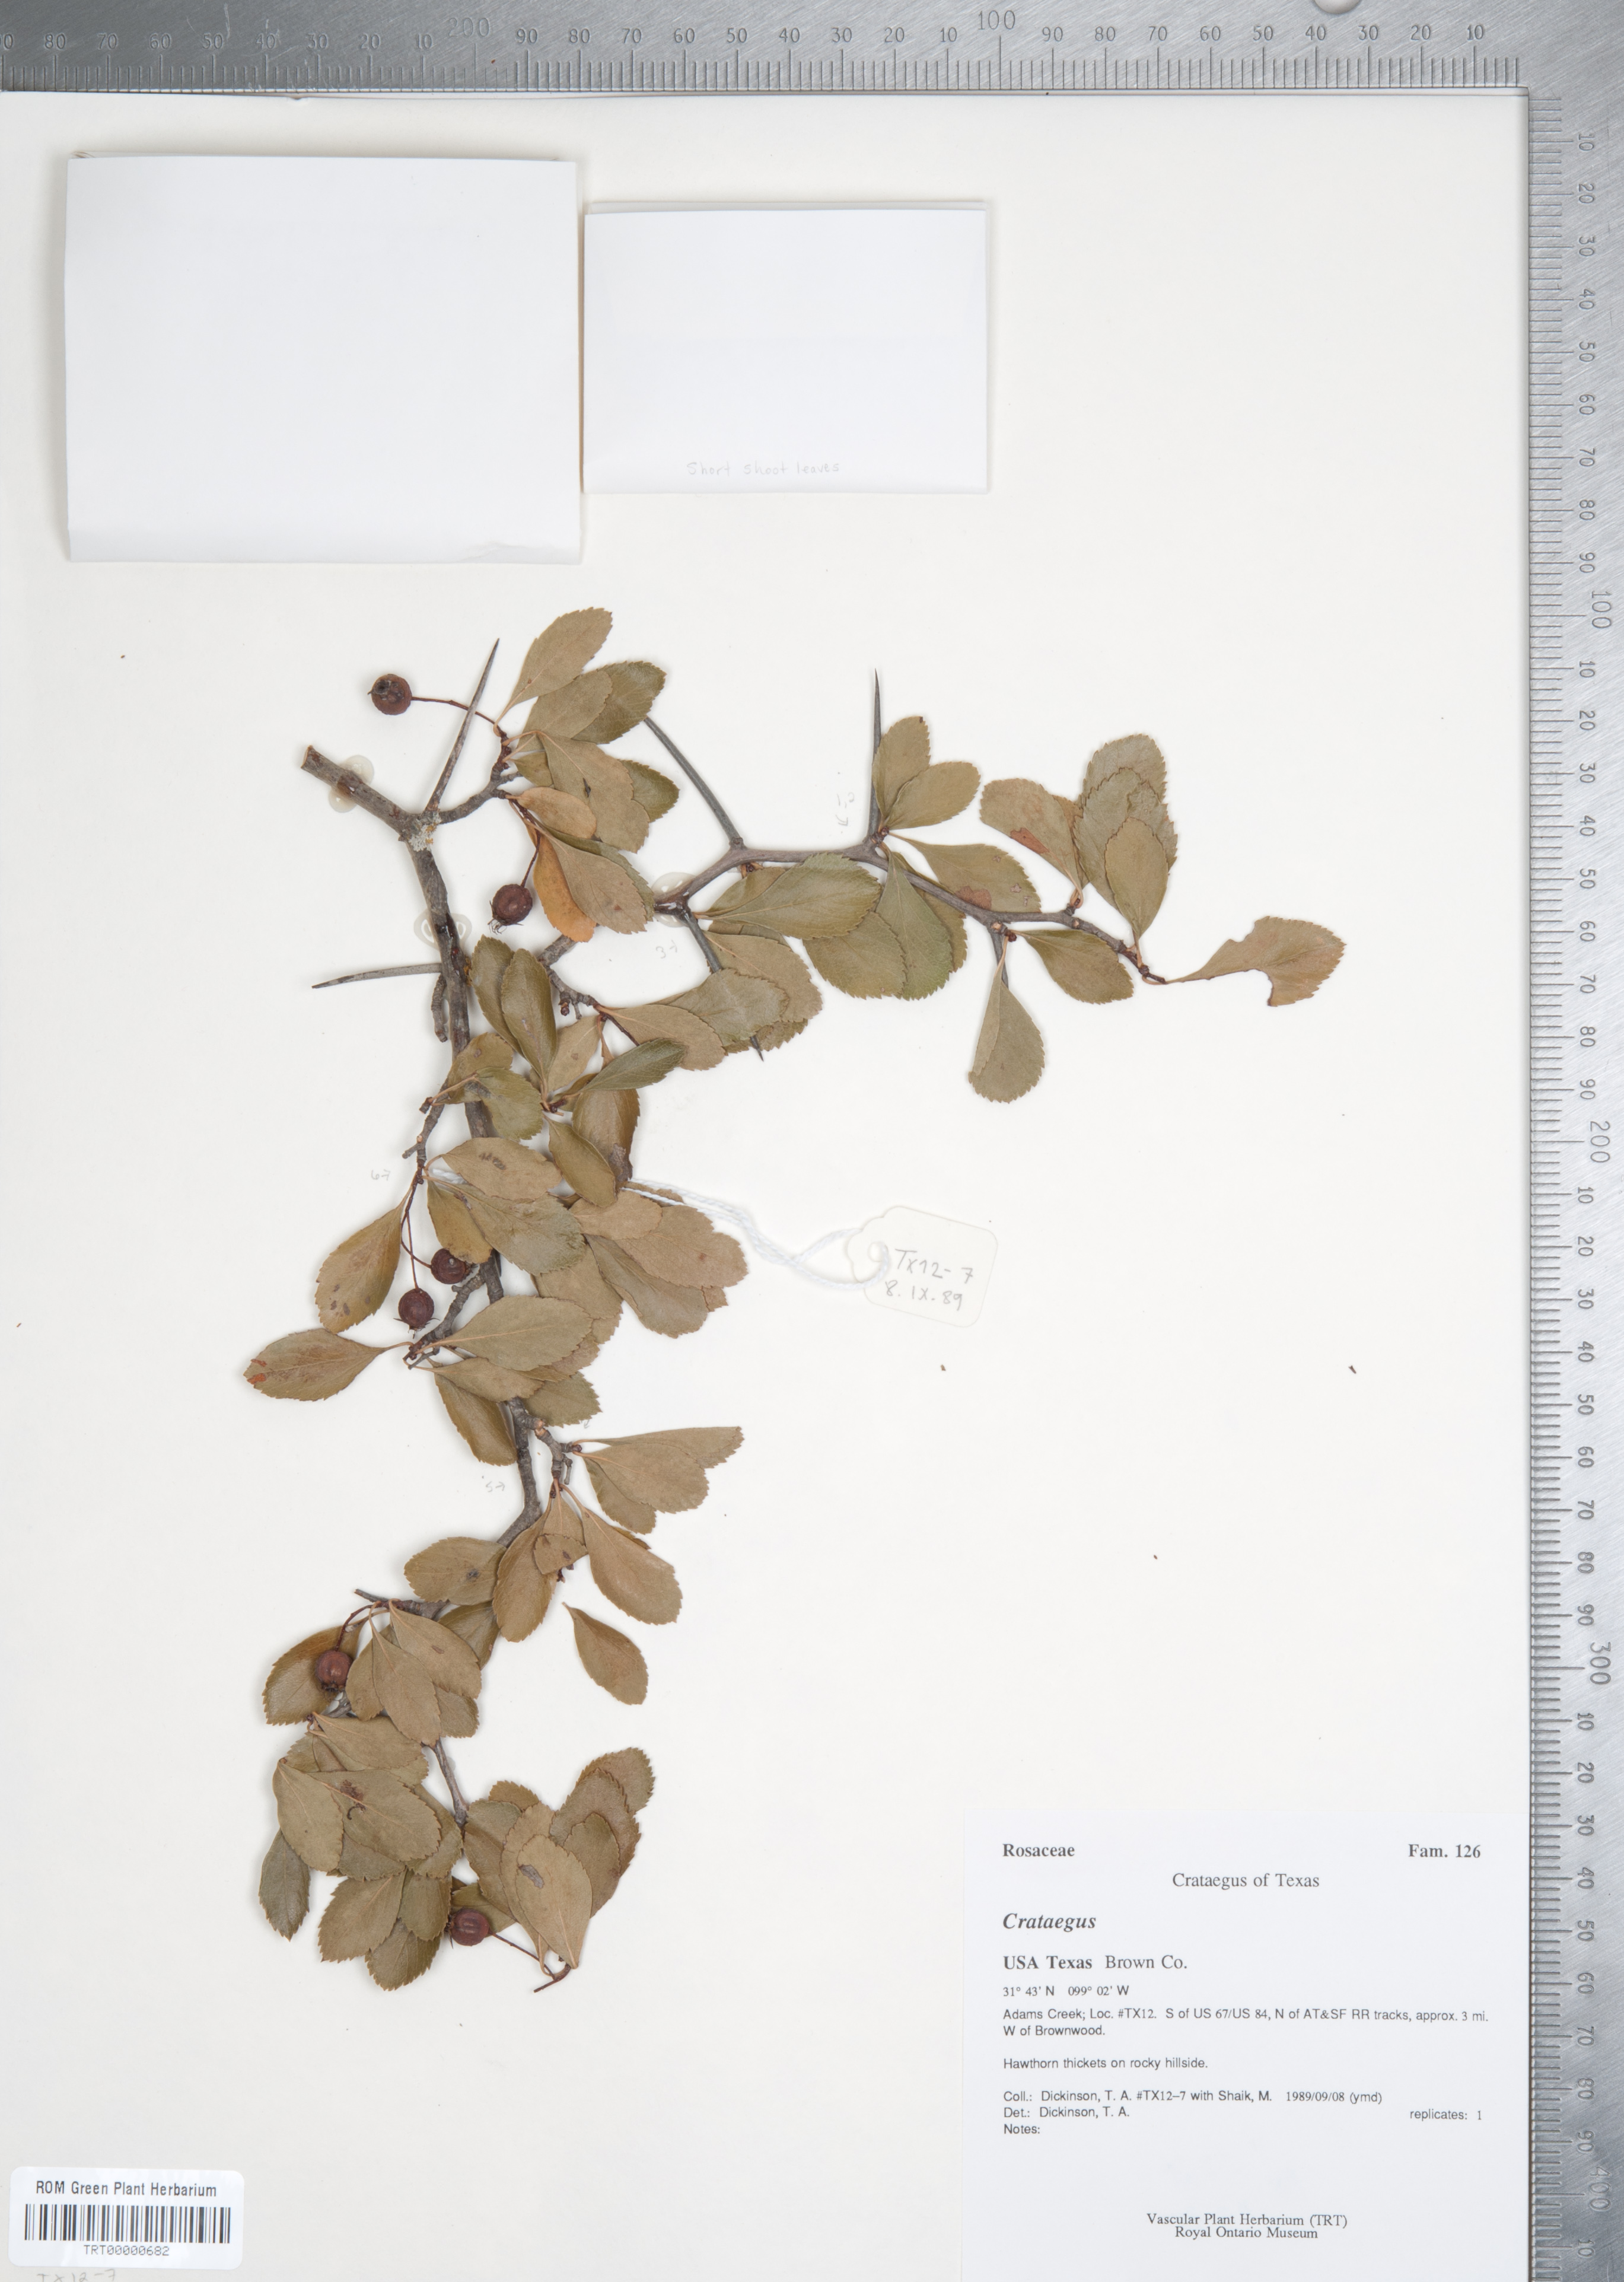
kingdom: Plantae
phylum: Tracheophyta
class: Magnoliopsida
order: Rosales
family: Rosaceae
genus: Crataegus
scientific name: Crataegus crus-galli
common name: Cockspurthorn
